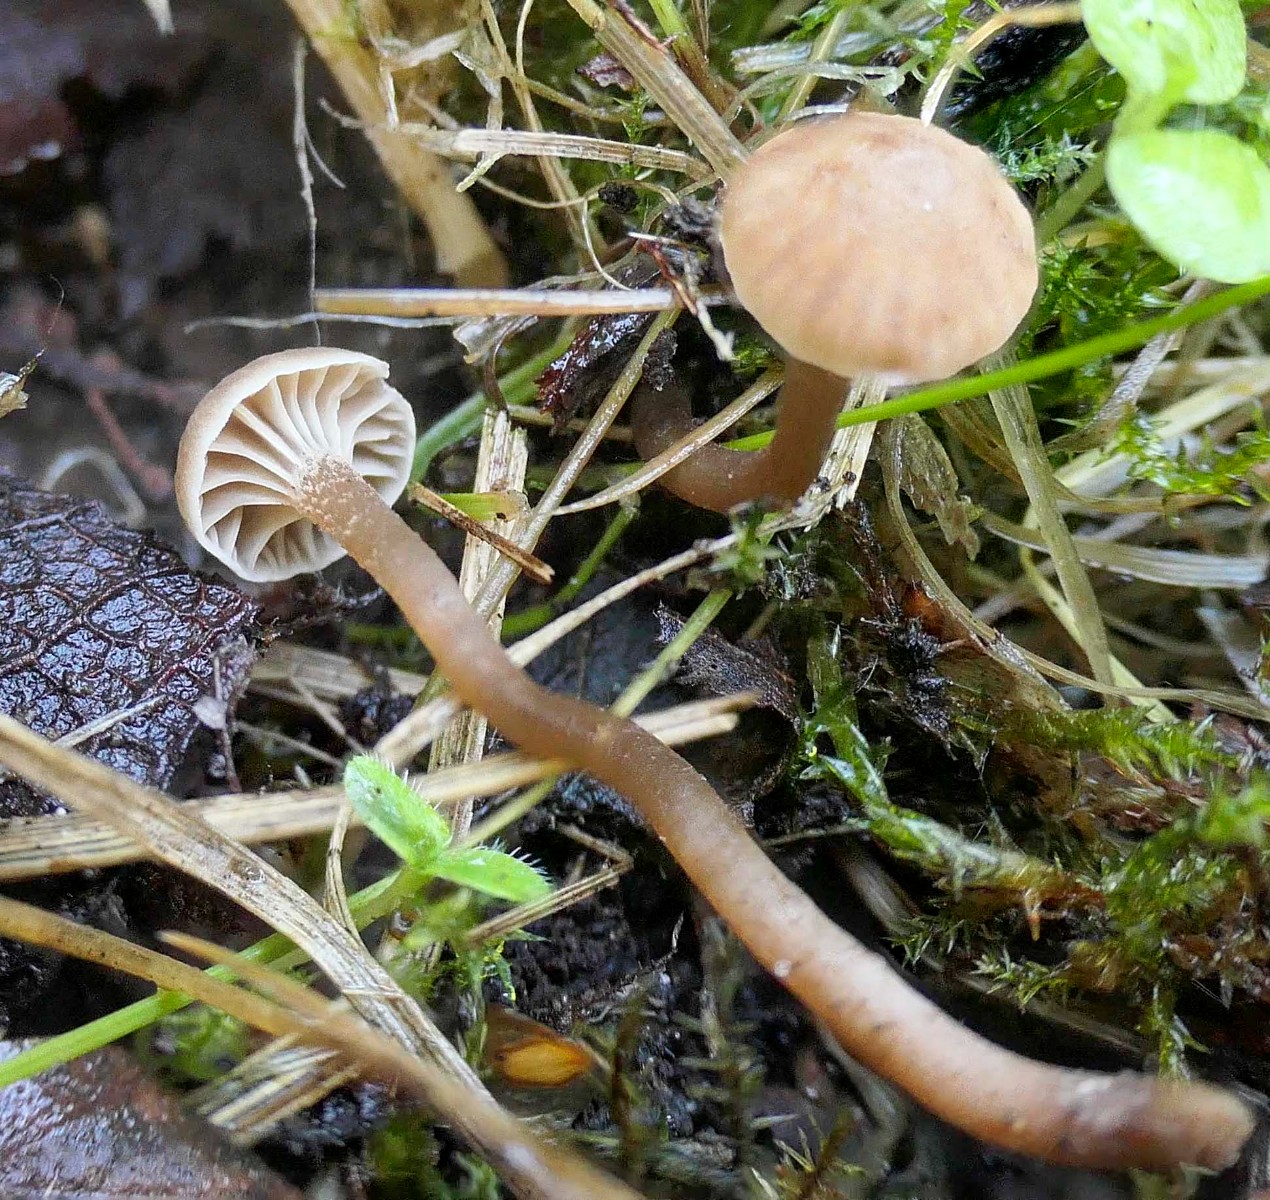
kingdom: Fungi
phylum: Basidiomycota
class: Agaricomycetes
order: Agaricales
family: Clavariaceae
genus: Hodophilus
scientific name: Hodophilus
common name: kratvokshat
